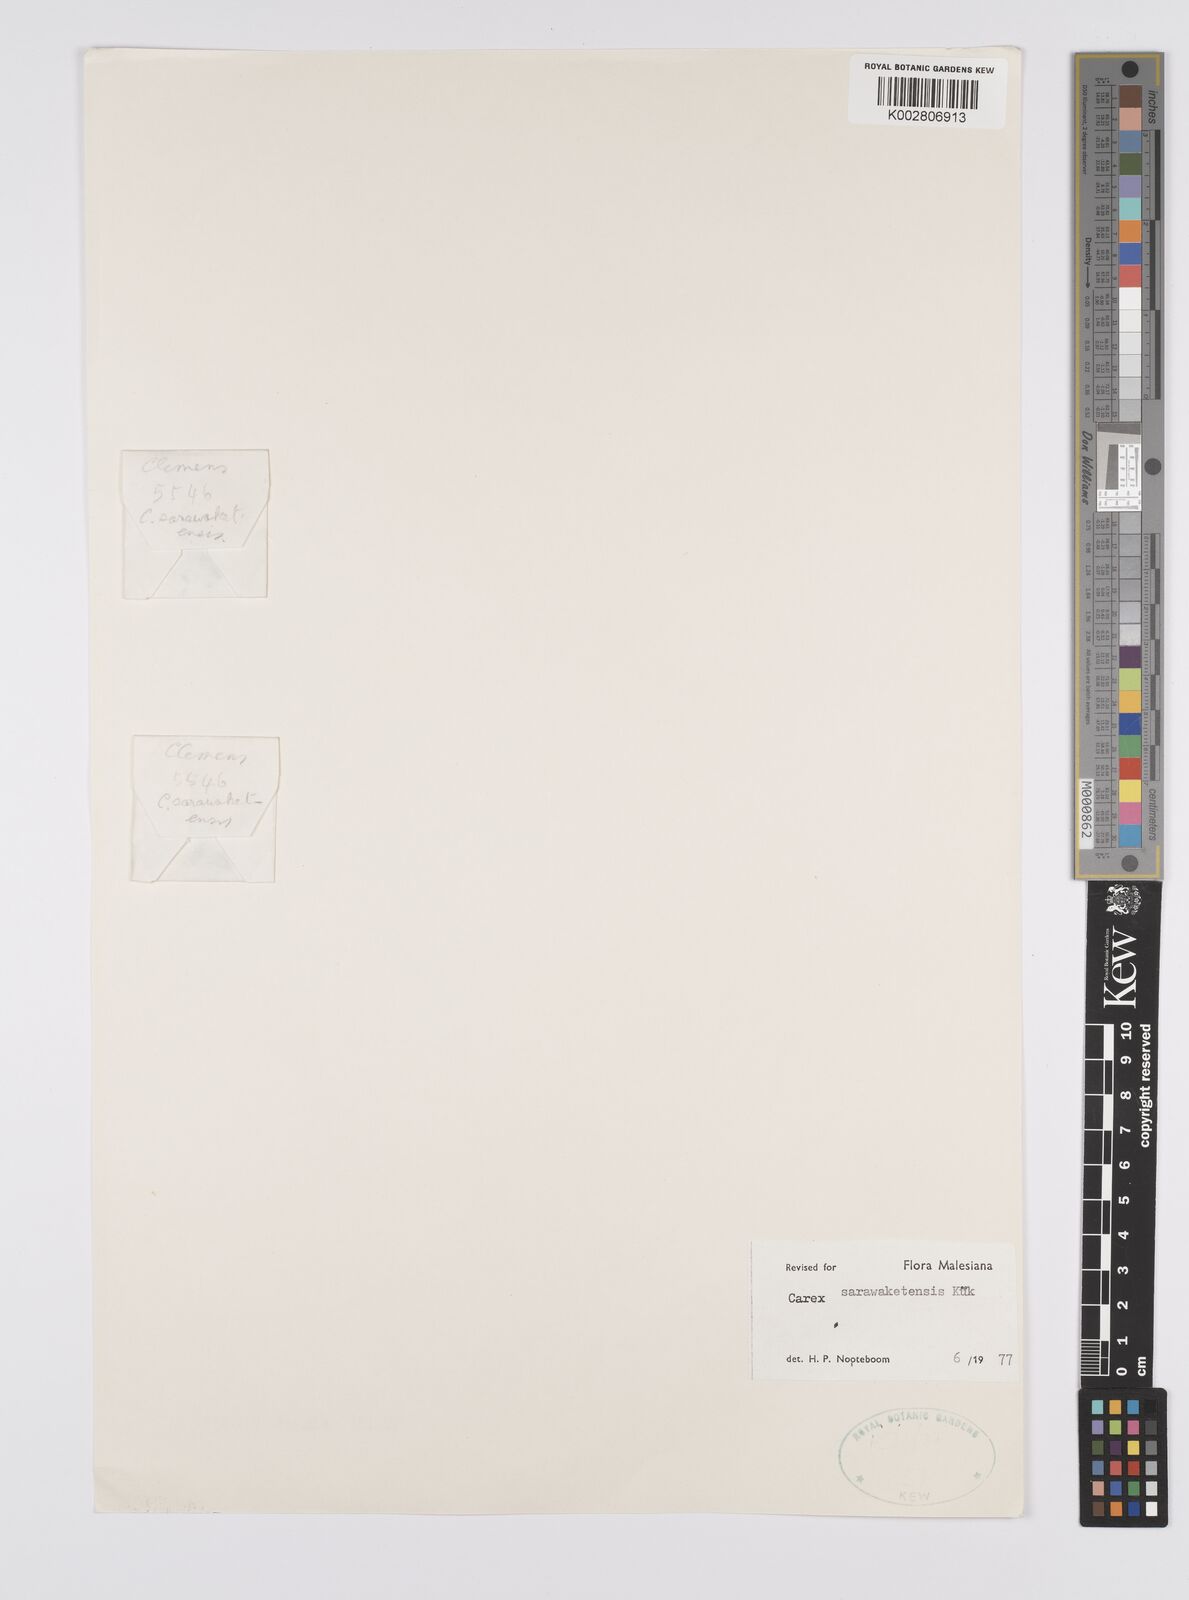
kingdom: Plantae
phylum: Tracheophyta
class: Liliopsida
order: Poales
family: Cyperaceae
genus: Carex
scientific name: Carex sarawaketensis
